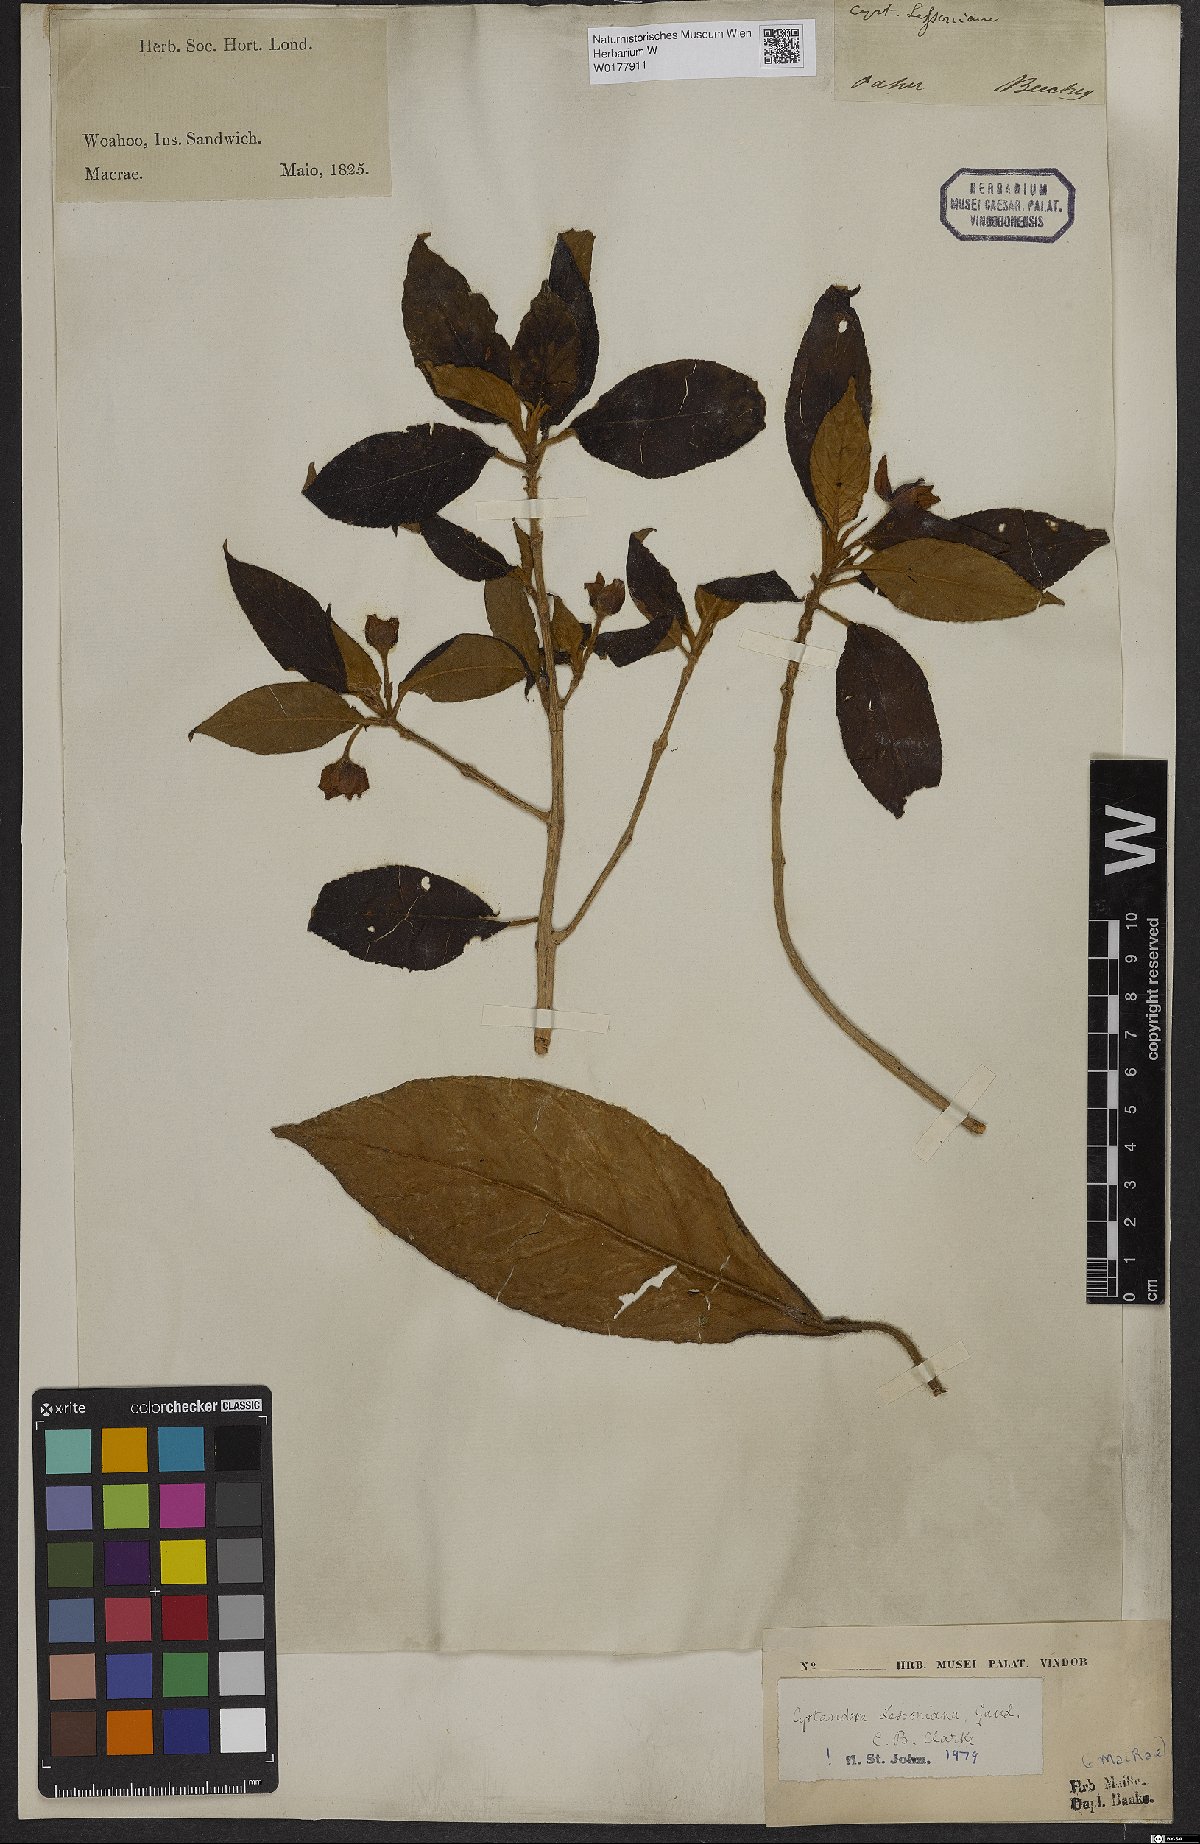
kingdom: Plantae
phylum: Tracheophyta
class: Magnoliopsida
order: Lamiales
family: Gesneriaceae
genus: Cyrtandra
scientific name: Cyrtandra lessoniana
